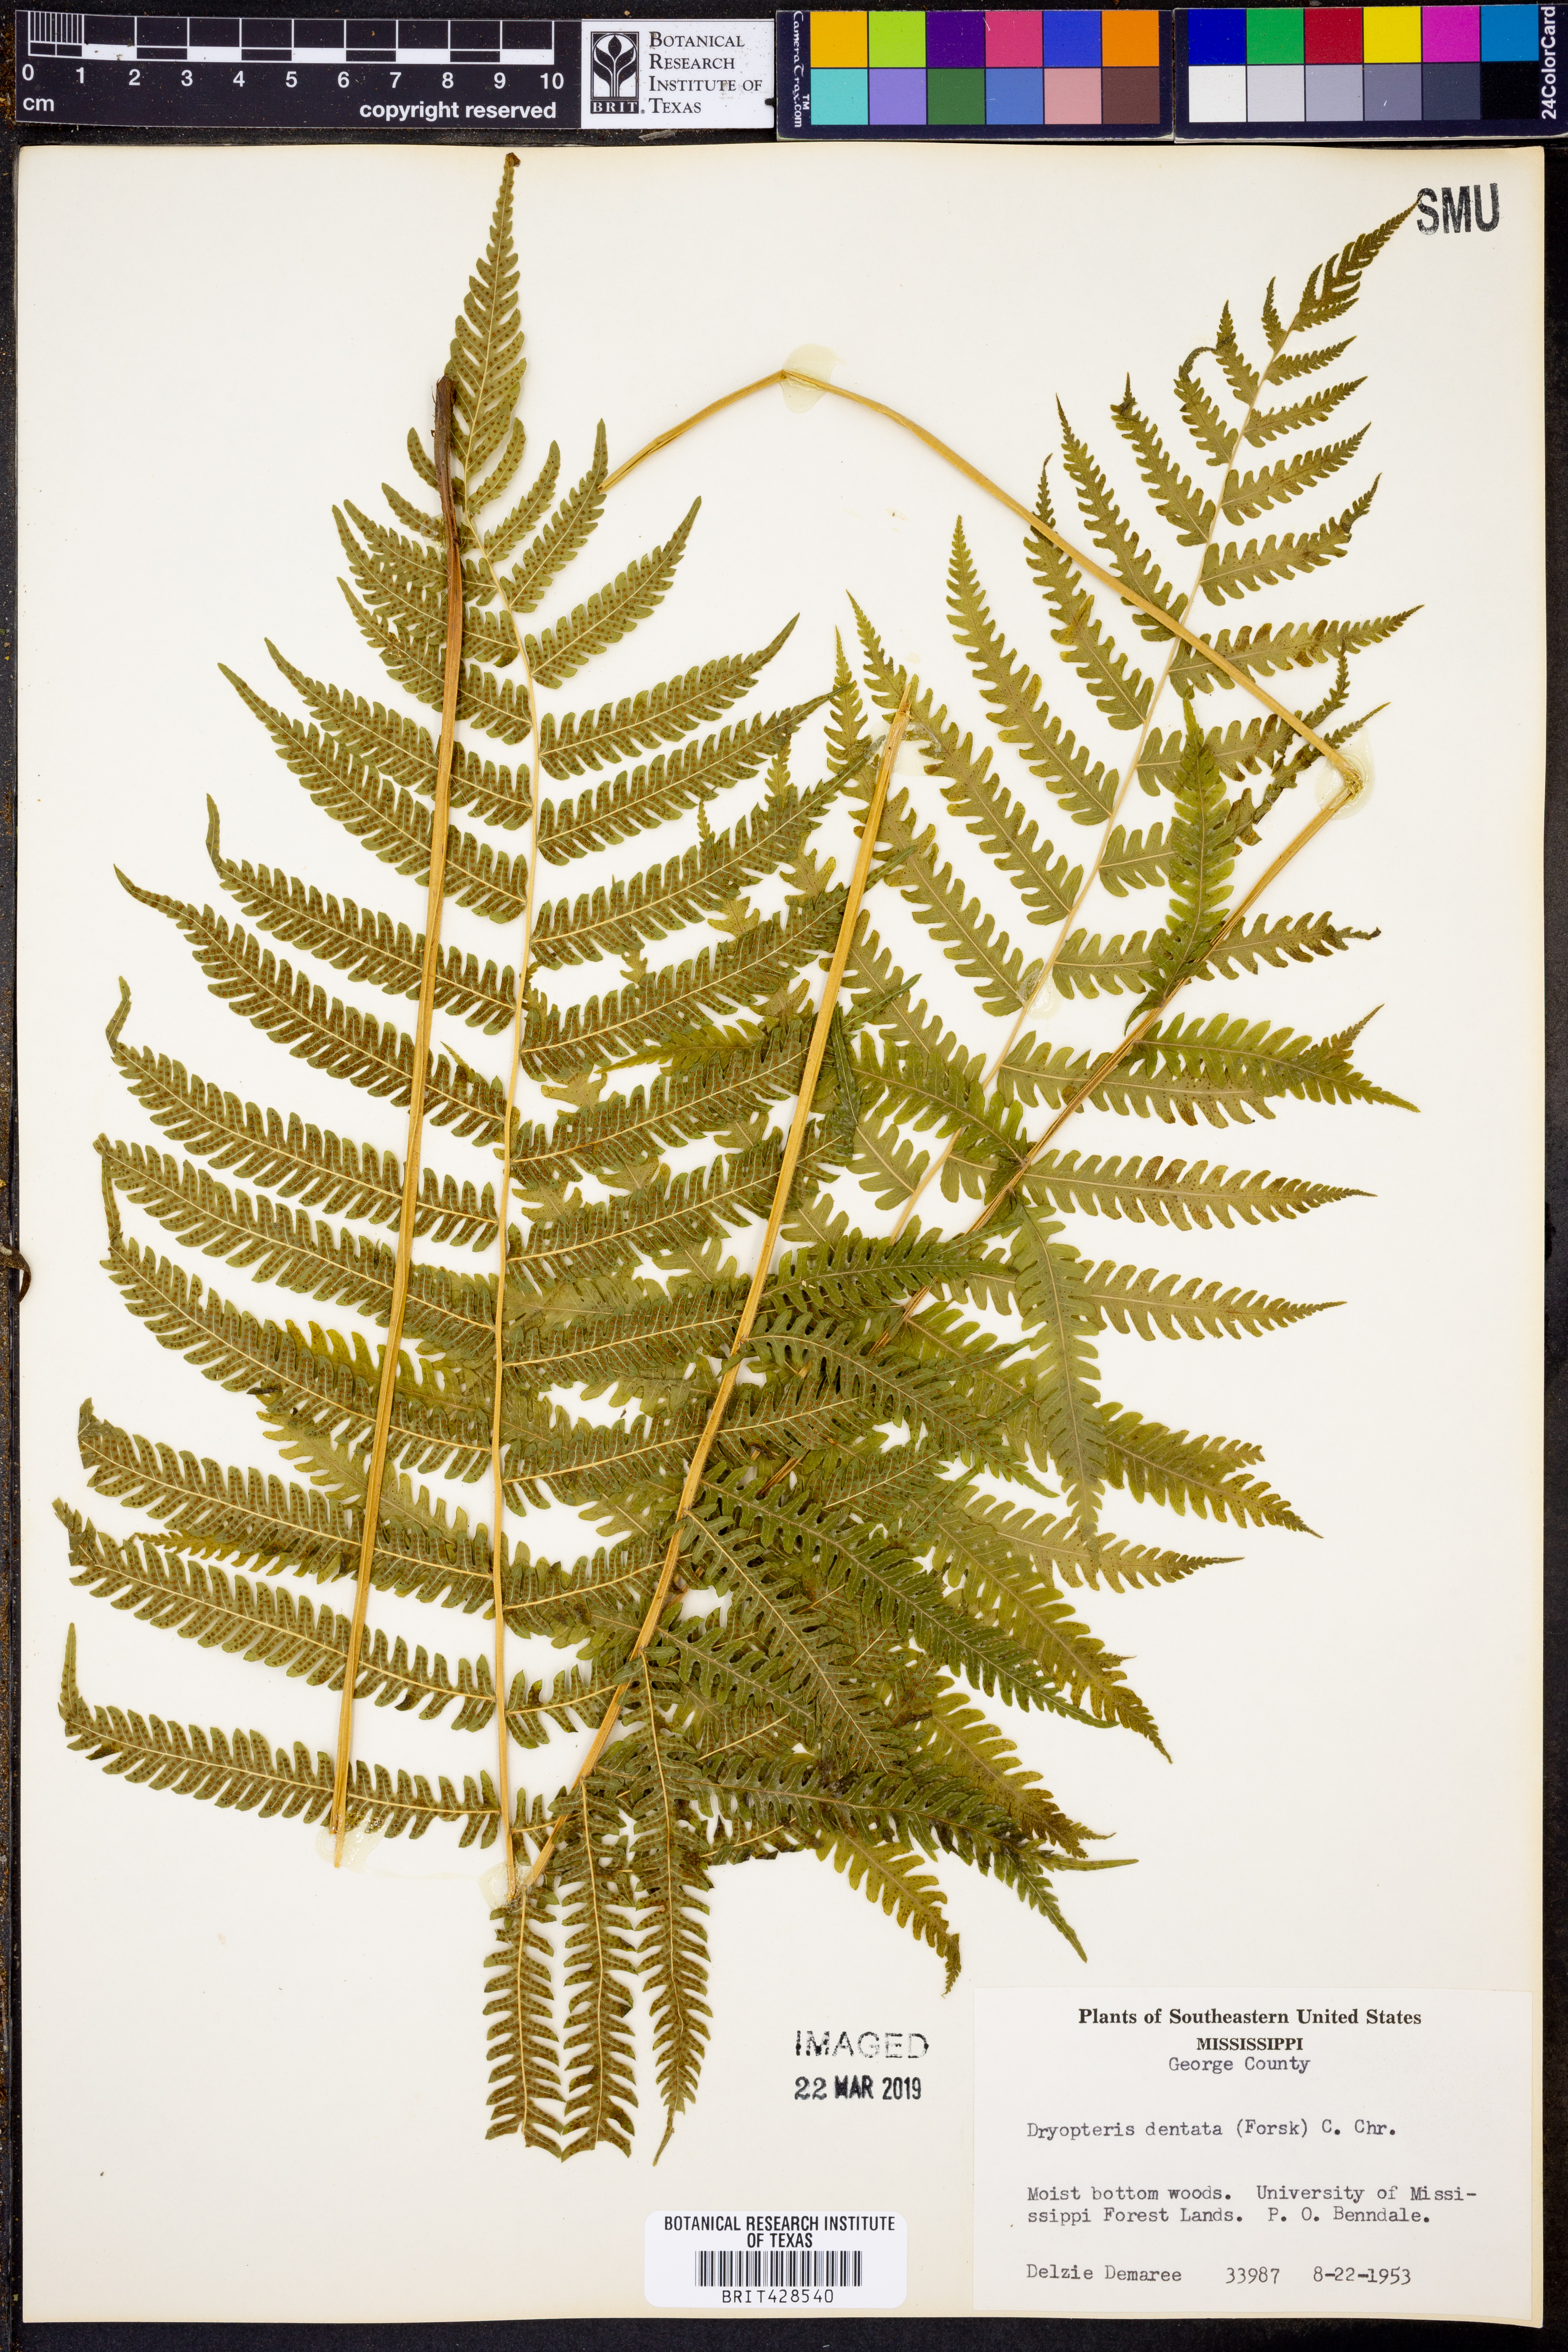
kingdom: Plantae
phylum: Tracheophyta
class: Polypodiopsida
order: Polypodiales
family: Thelypteridaceae
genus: Christella
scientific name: Christella dentata
